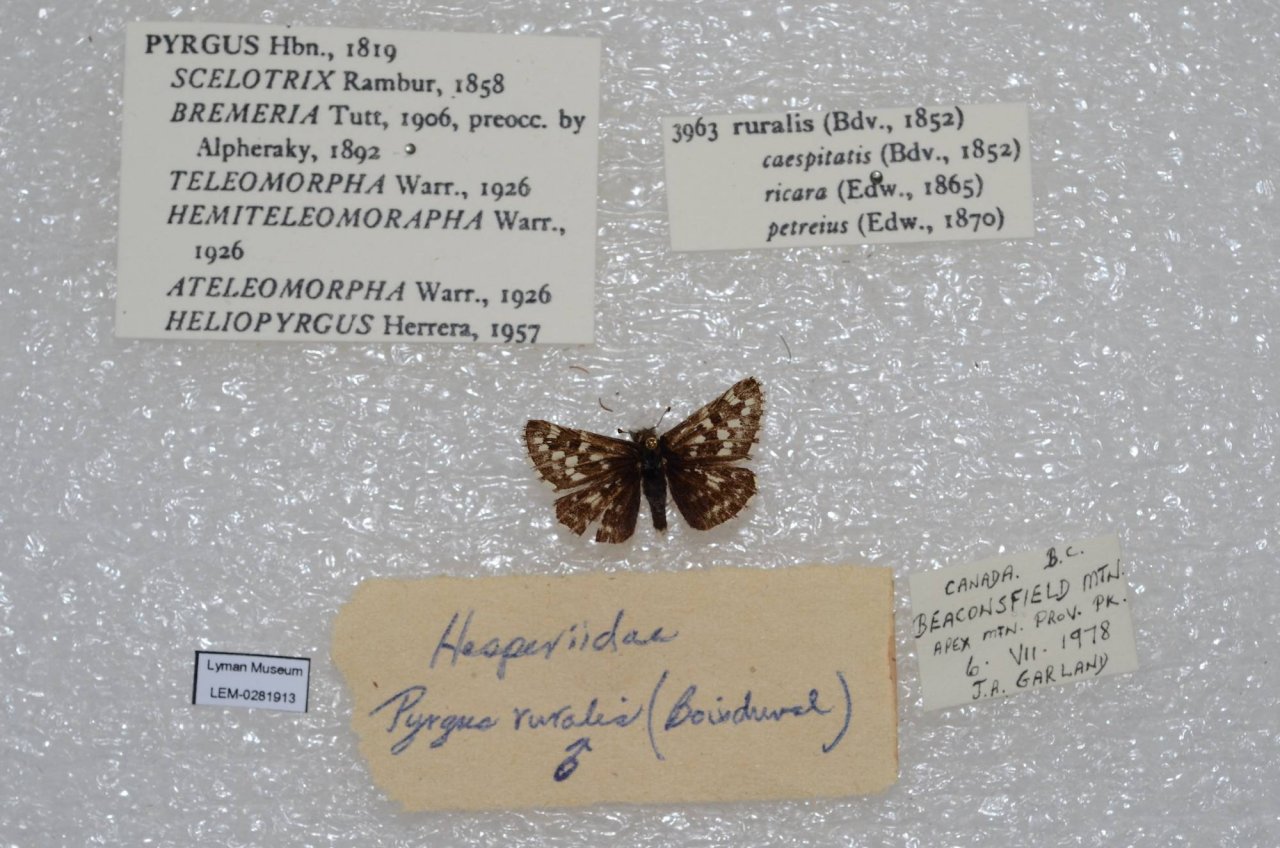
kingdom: Animalia
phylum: Arthropoda
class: Insecta
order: Lepidoptera
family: Hesperiidae
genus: Pyrgus
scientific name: Pyrgus ruralis
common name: Two-banded Checkered-Skipper
